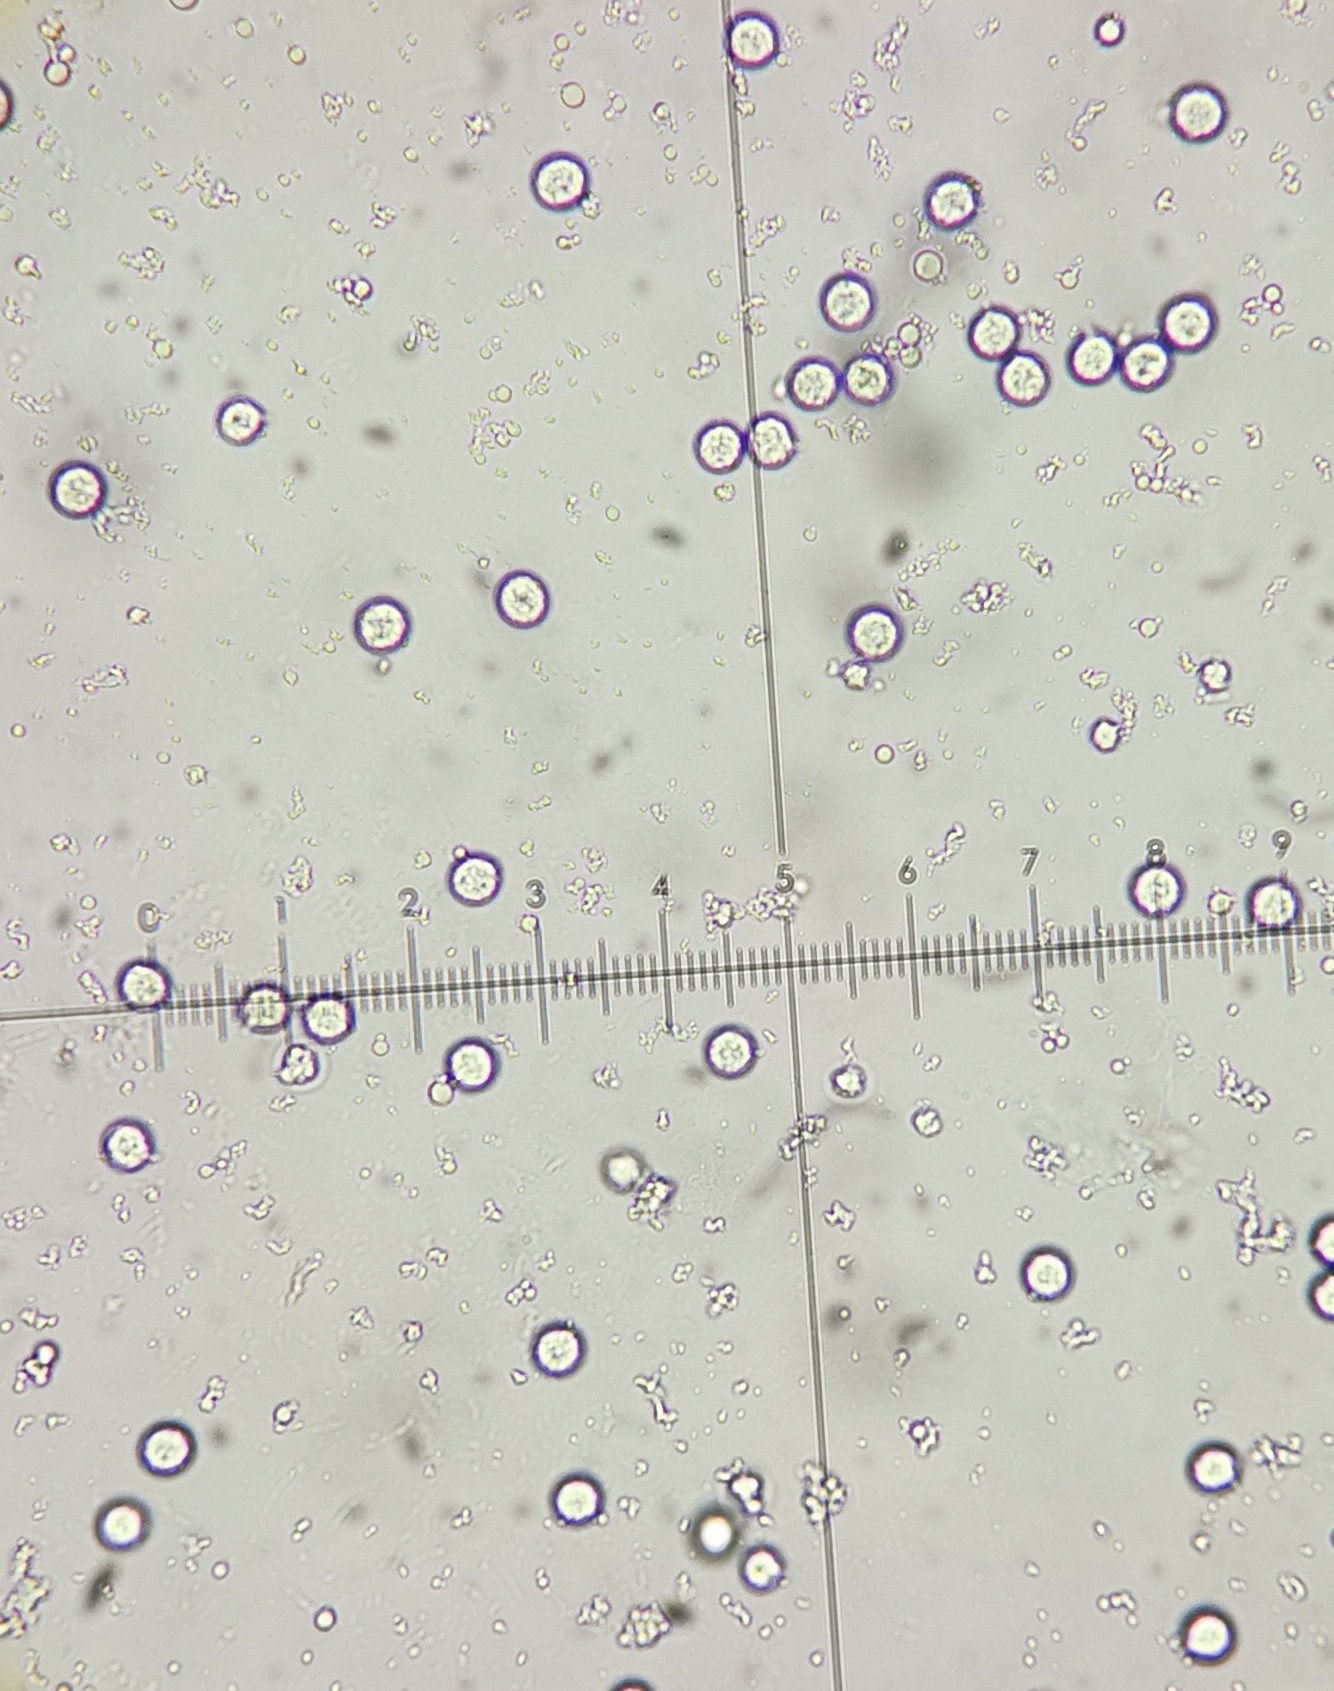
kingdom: Fungi
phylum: Basidiomycota
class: Agaricomycetes
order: Agaricales
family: Amanitaceae
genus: Amanita
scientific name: Amanita
